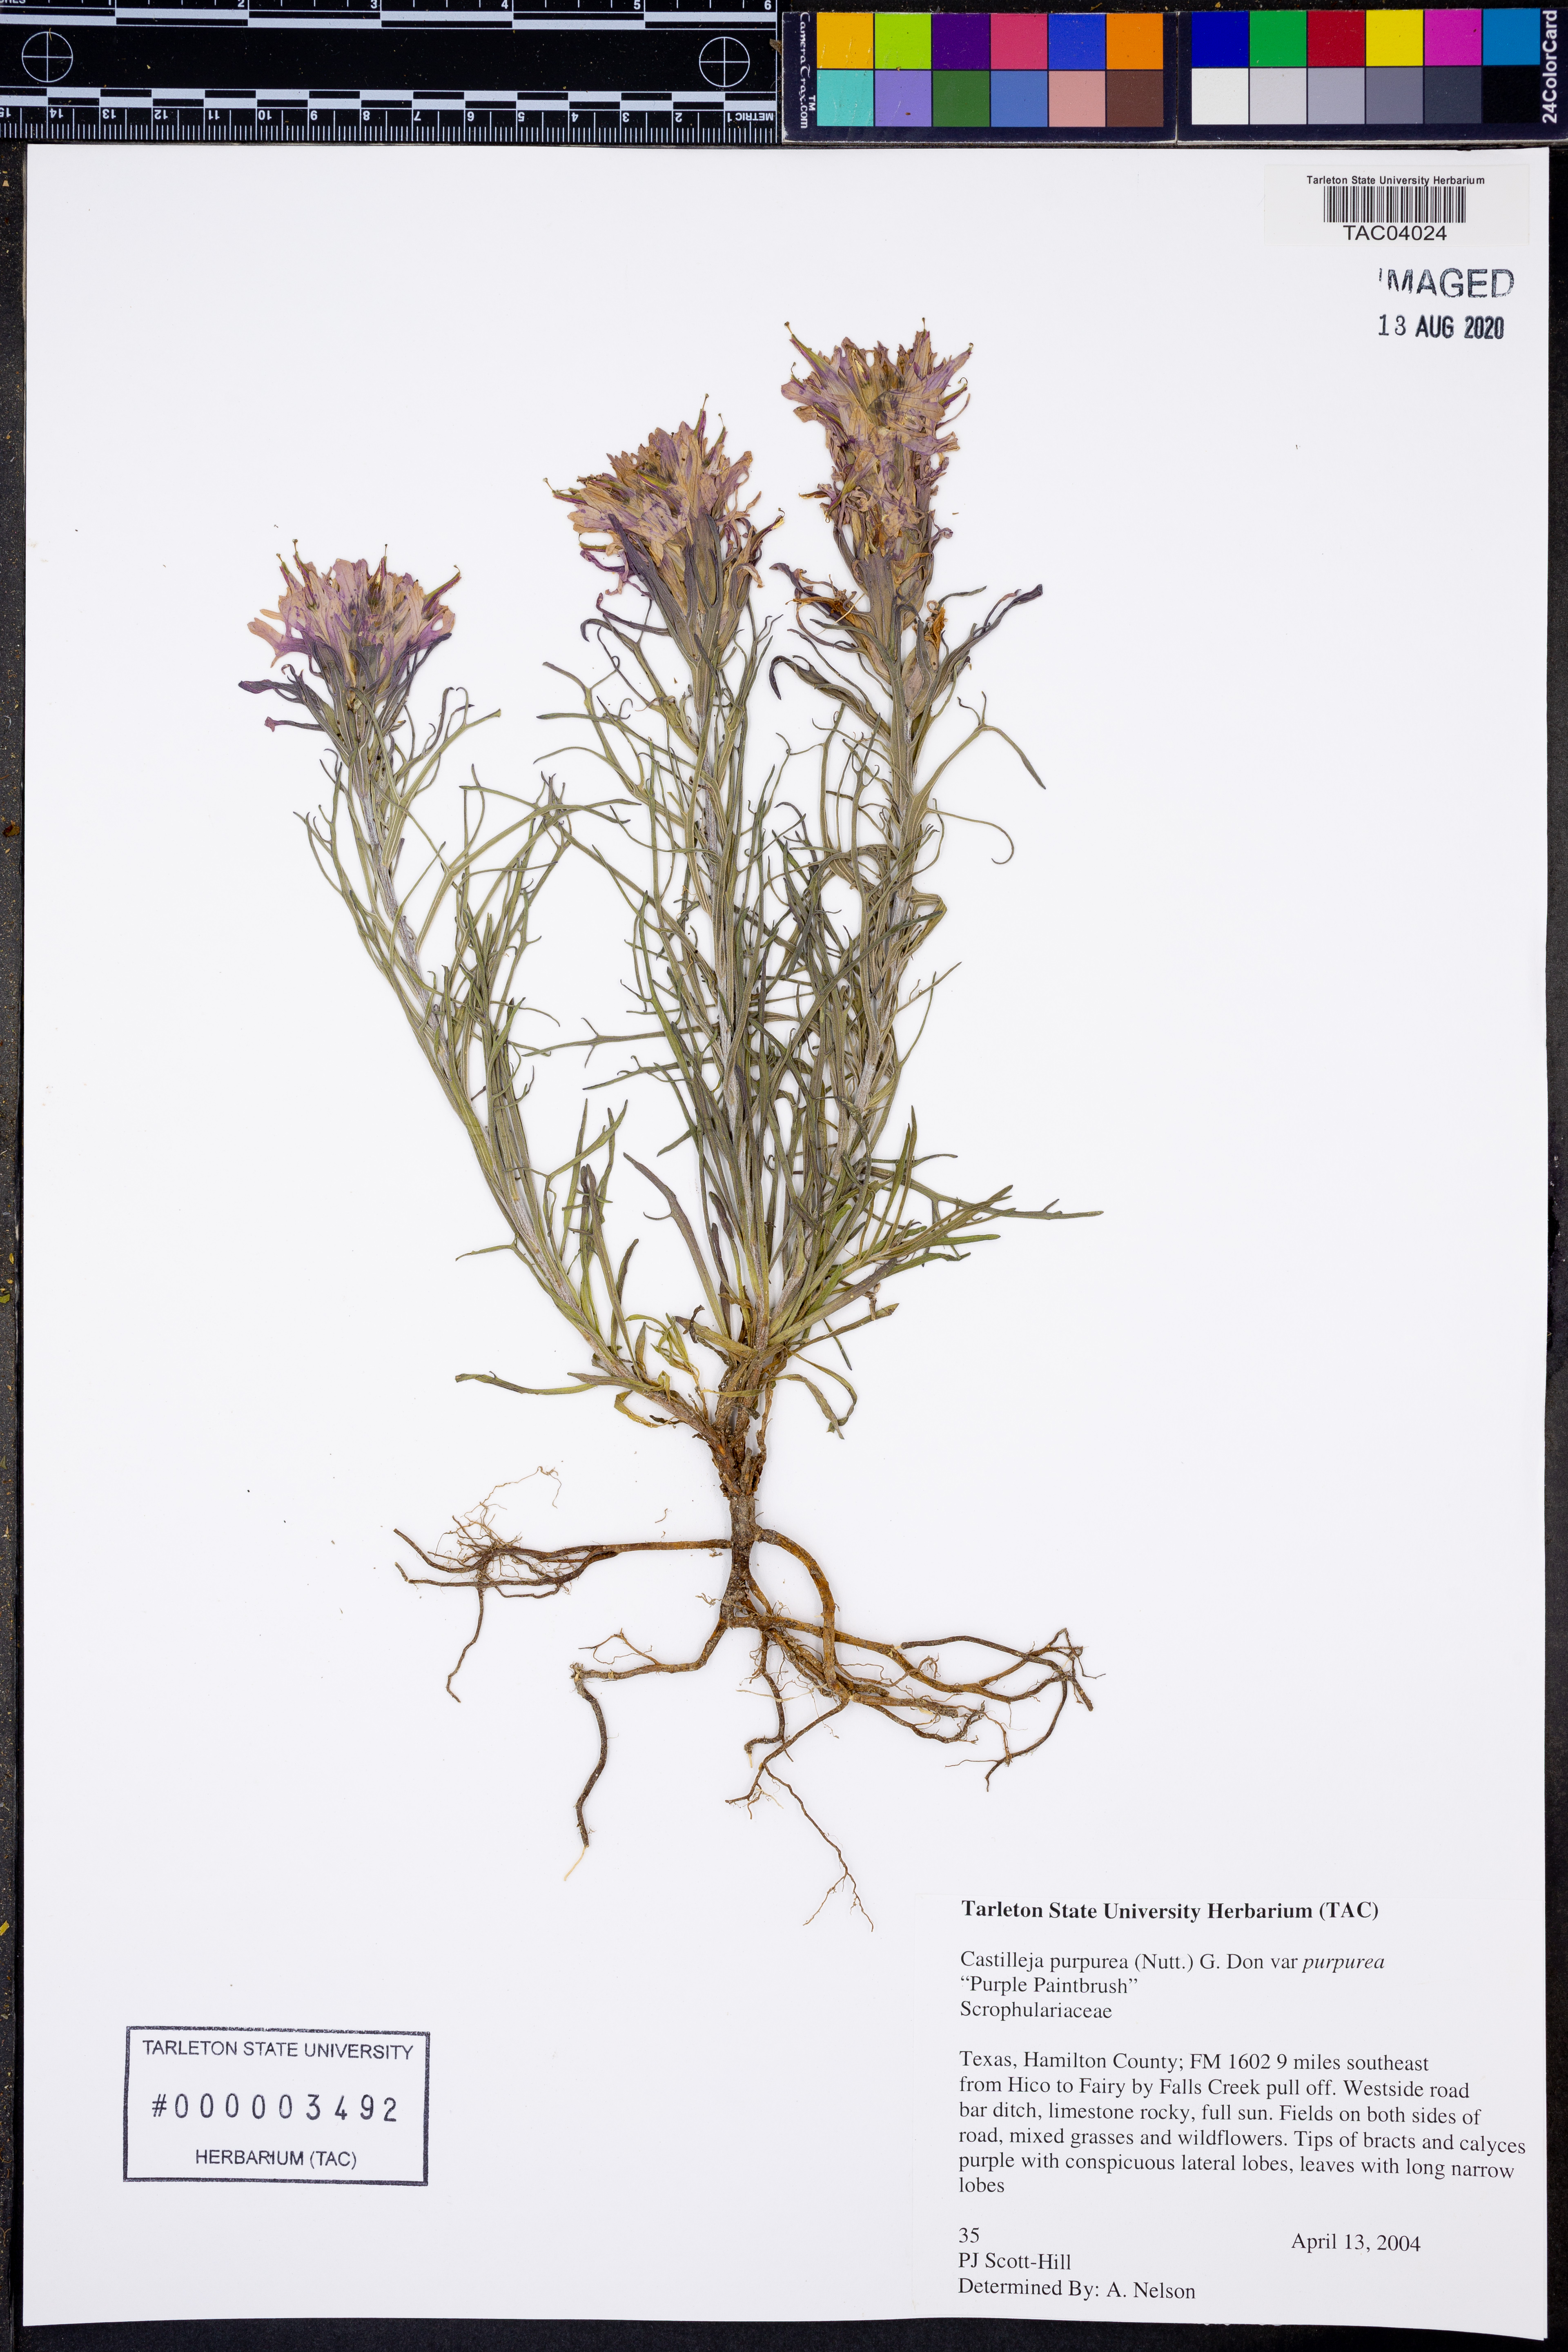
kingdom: Plantae
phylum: Tracheophyta
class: Magnoliopsida
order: Lamiales
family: Orobanchaceae
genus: Castilleja
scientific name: Castilleja purpurea
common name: Plains paintbrush
